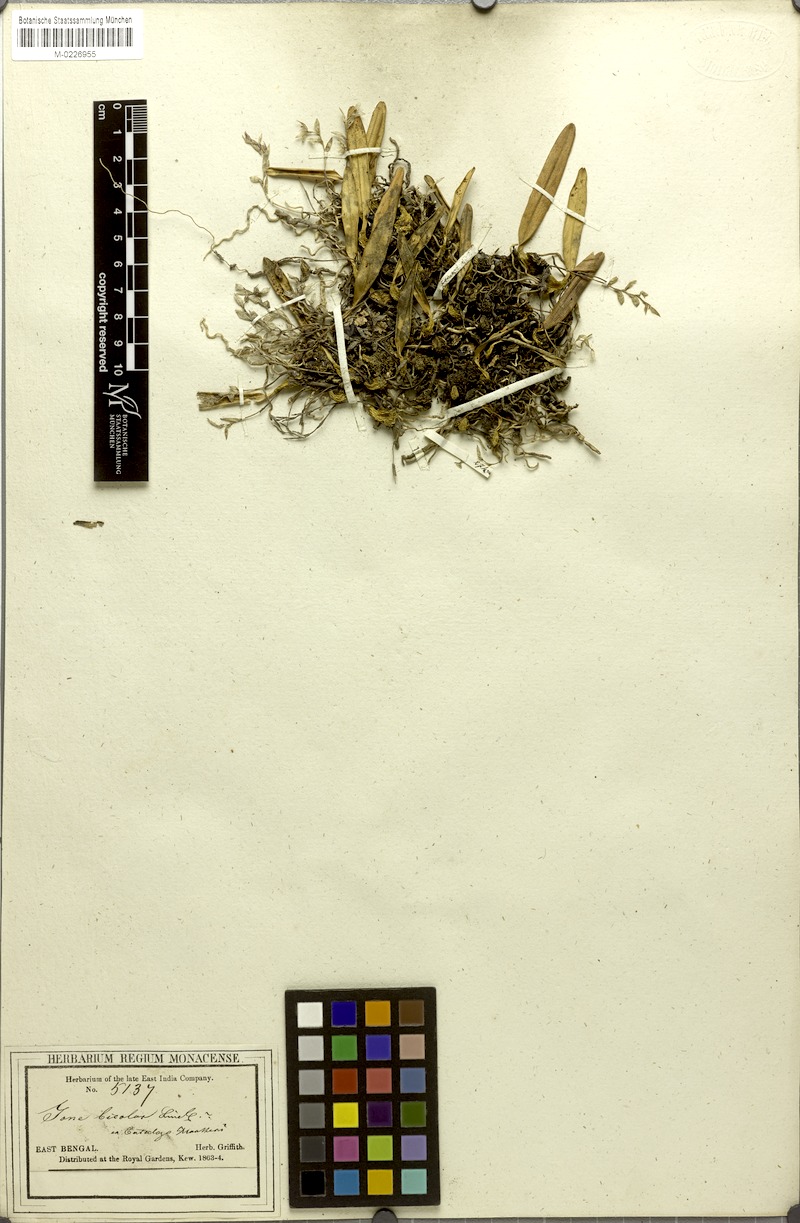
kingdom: Plantae
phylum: Tracheophyta
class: Liliopsida
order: Asparagales
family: Orchidaceae
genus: Bulbophyllum
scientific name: Bulbophyllum roseopictum
